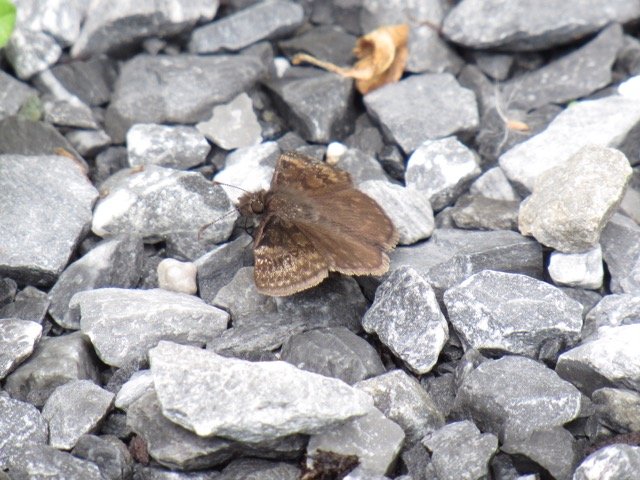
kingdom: Animalia
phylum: Arthropoda
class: Insecta
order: Lepidoptera
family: Hesperiidae
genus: Gesta
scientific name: Gesta
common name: Wild Indigo Duskywing
